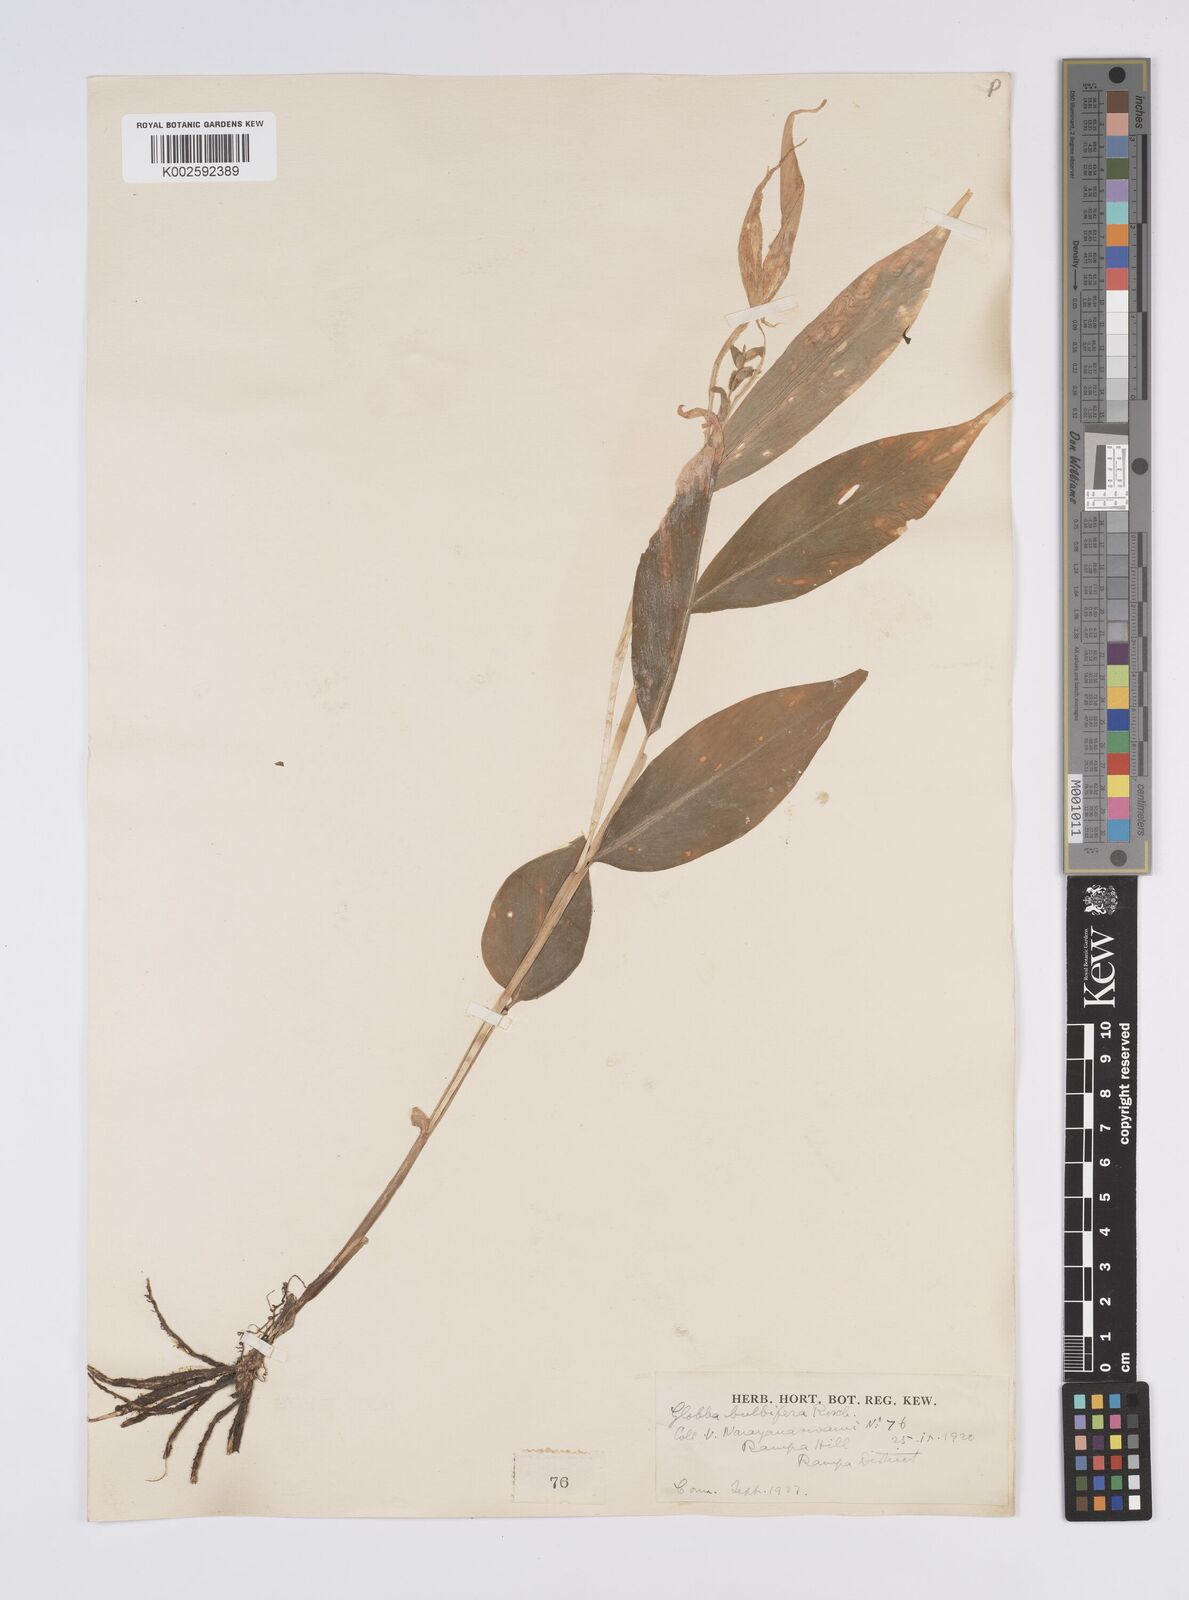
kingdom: Plantae
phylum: Tracheophyta
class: Liliopsida
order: Zingiberales
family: Zingiberaceae
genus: Globba
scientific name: Globba marantina
